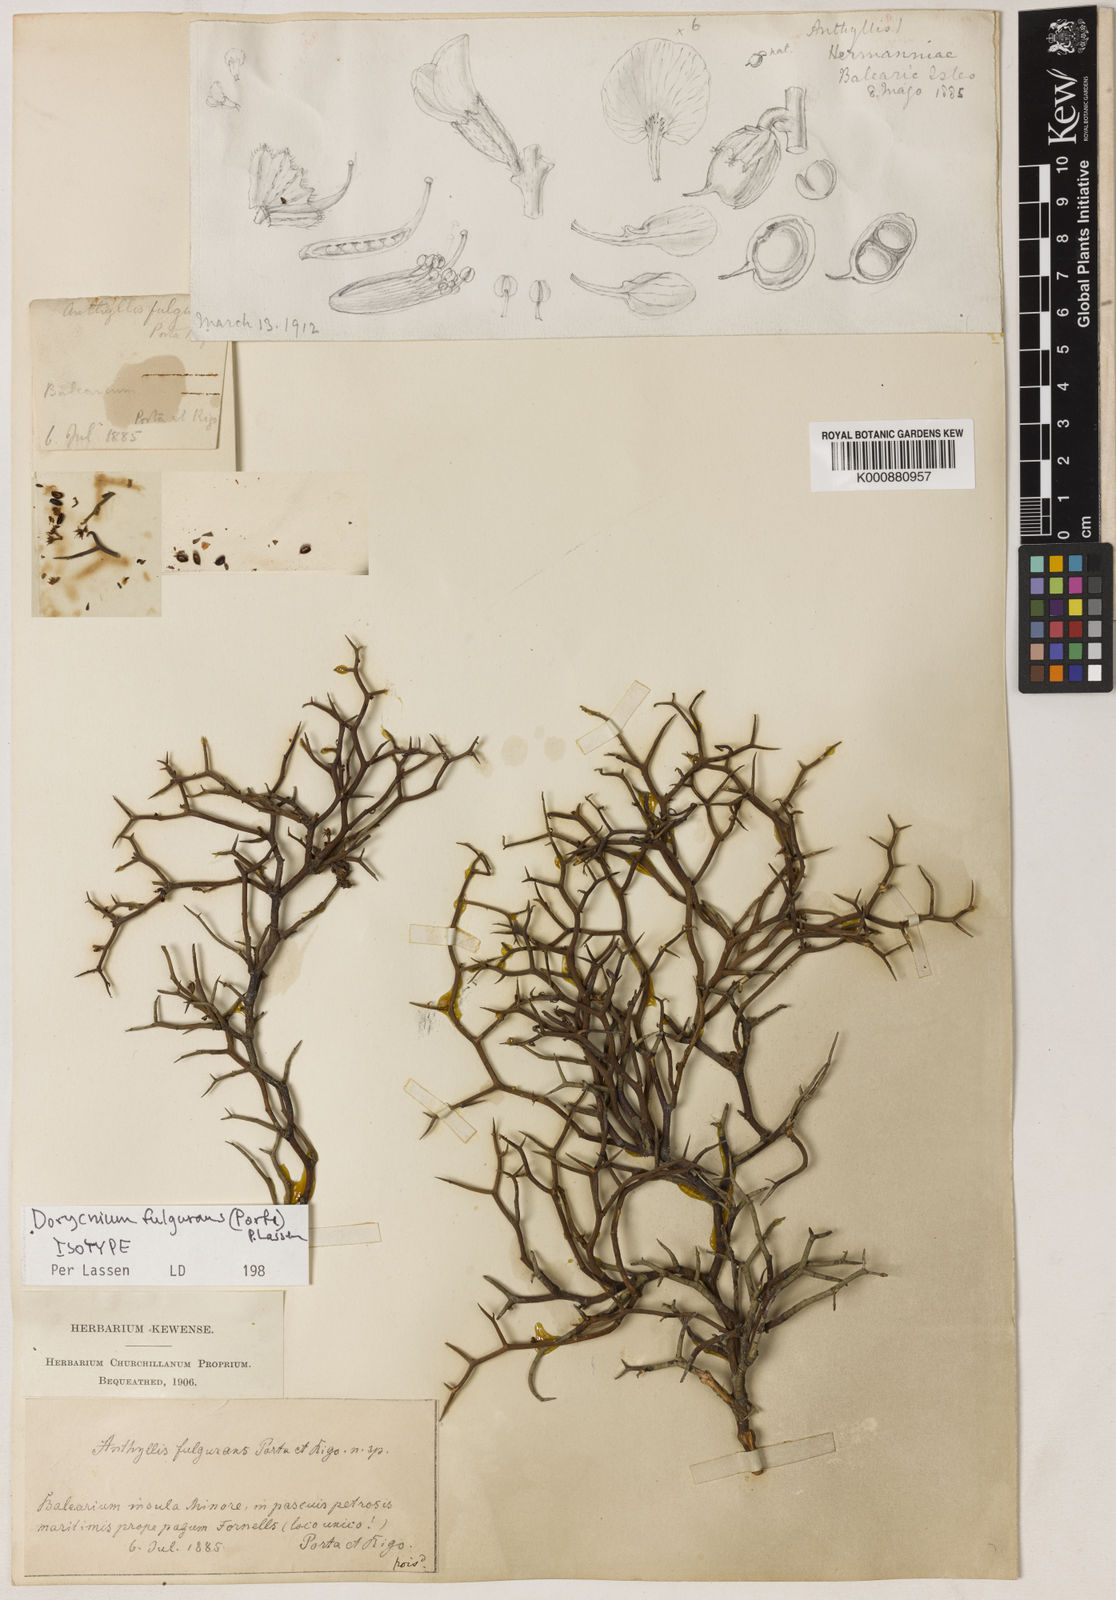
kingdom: Plantae
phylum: Tracheophyta
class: Magnoliopsida
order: Fabales
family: Fabaceae
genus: Lotus
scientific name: Lotus fulgurans
